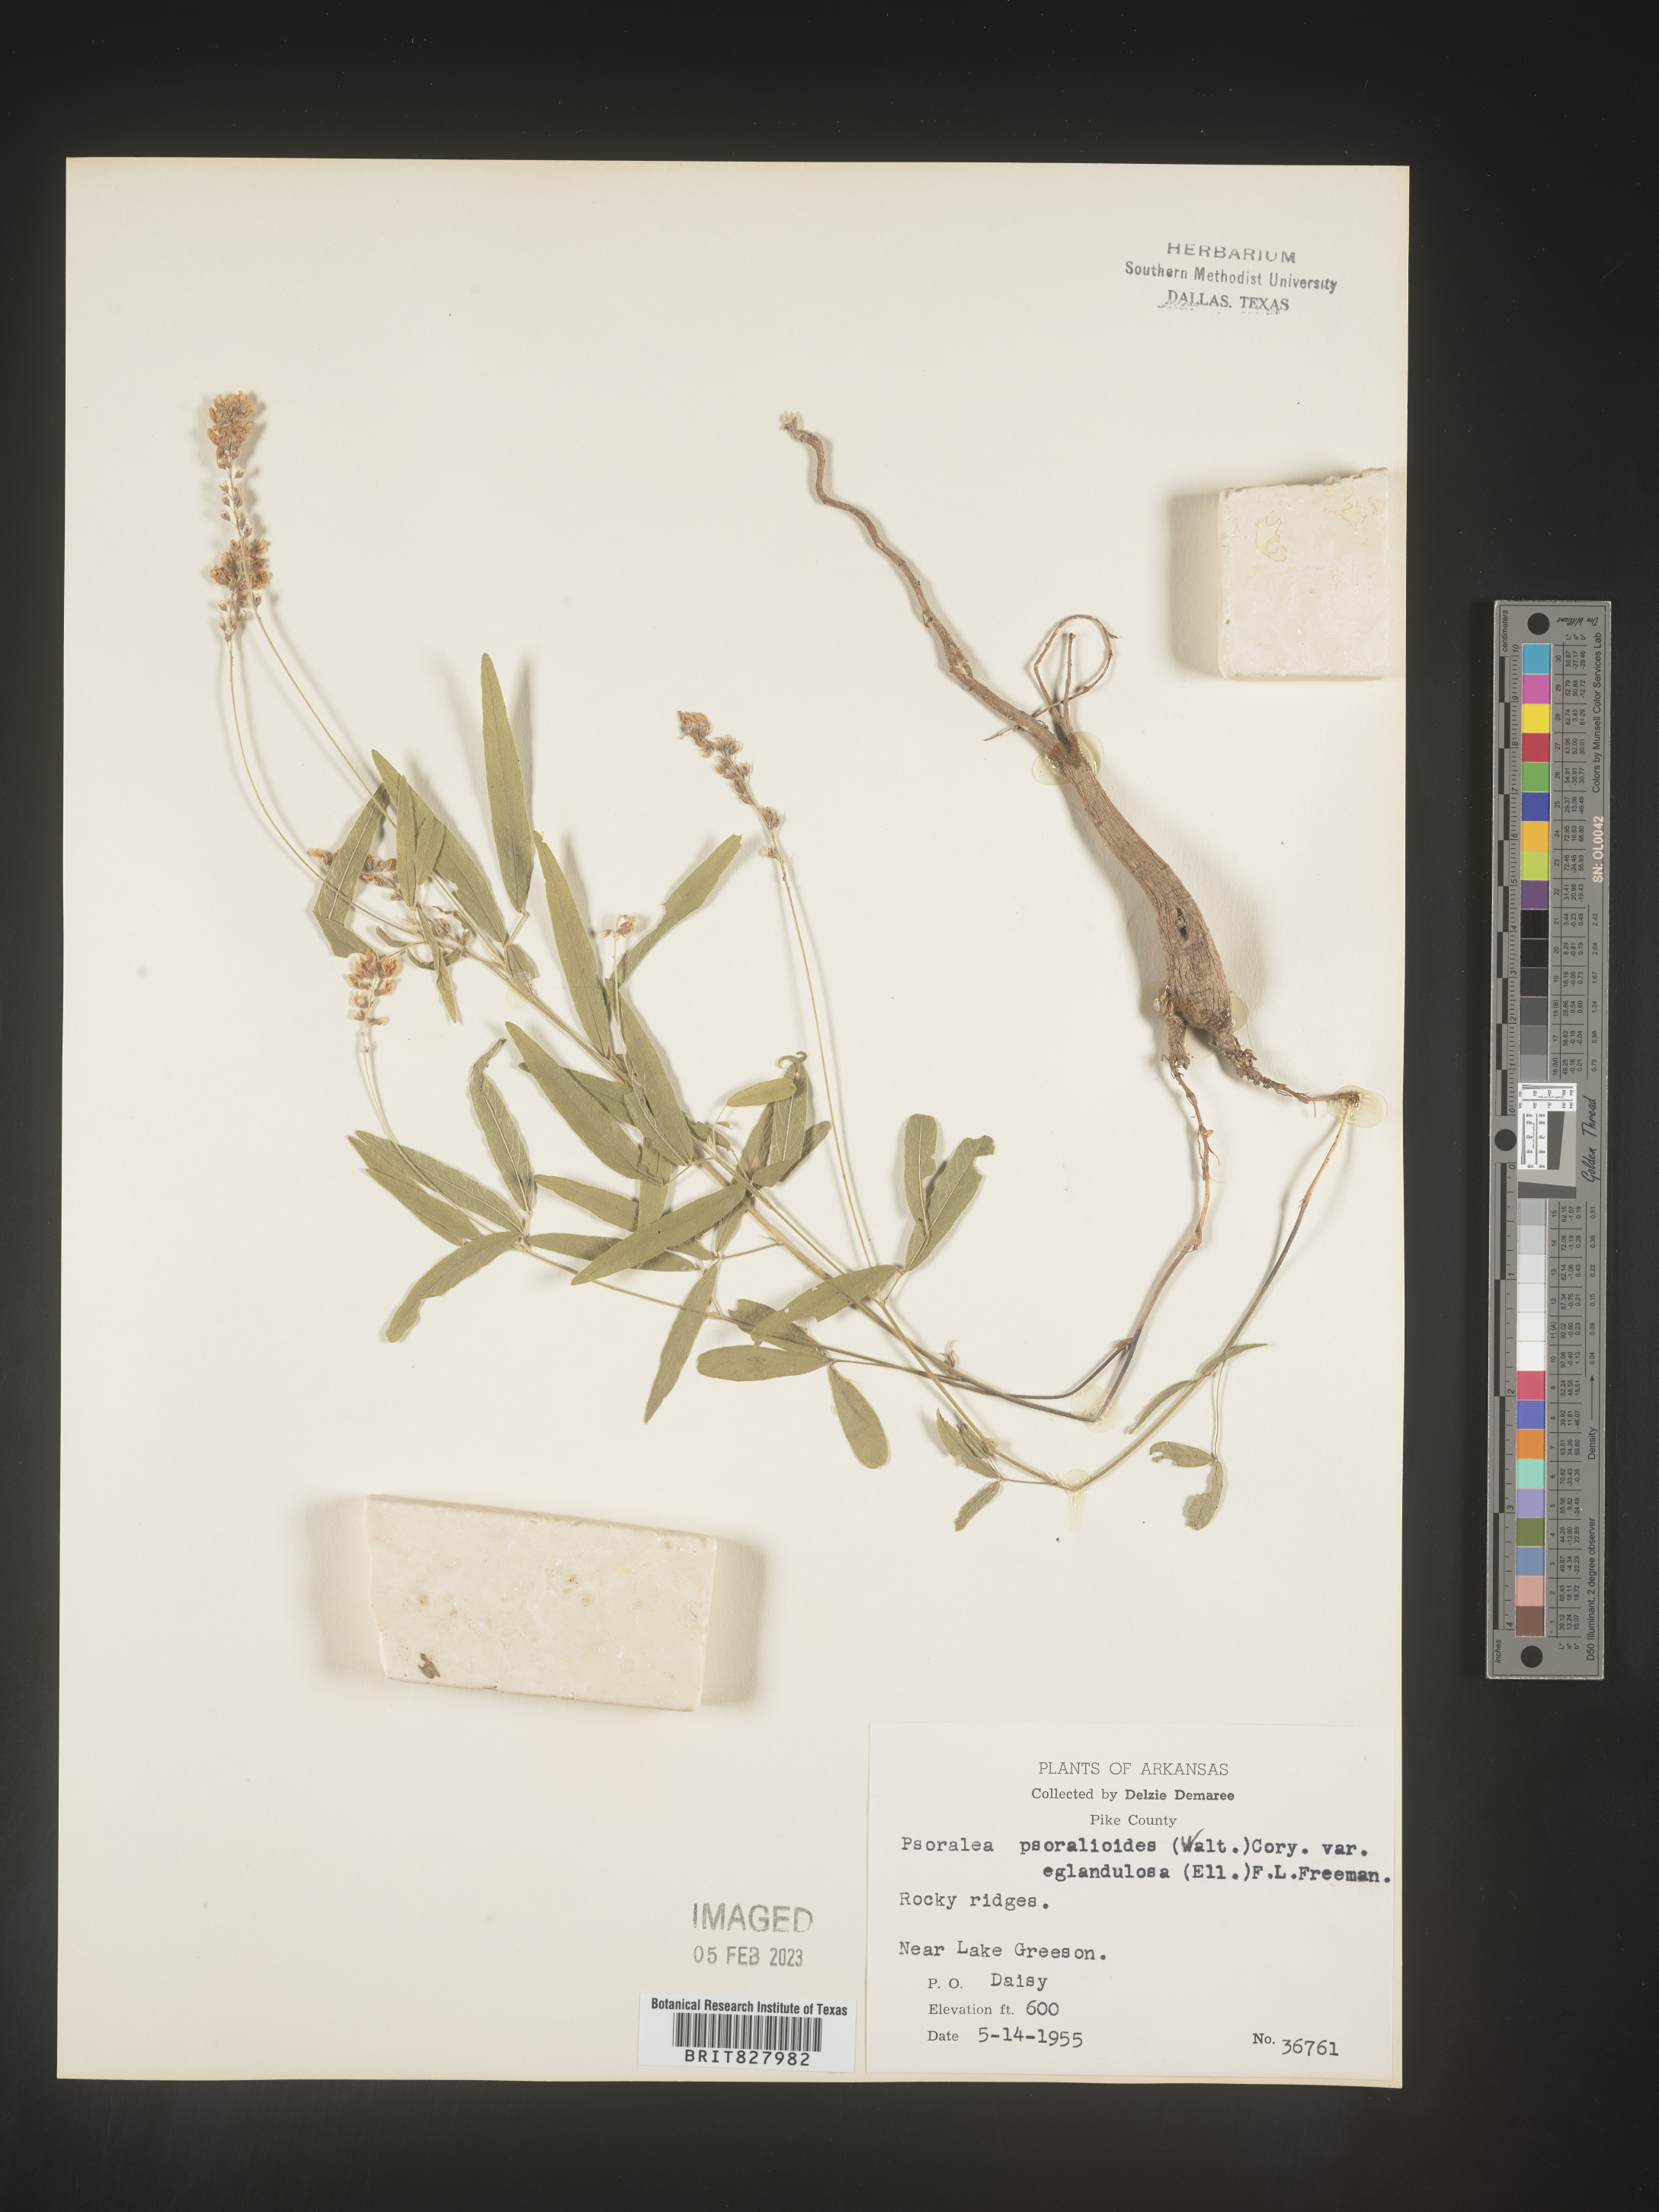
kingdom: Plantae
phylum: Tracheophyta
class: Magnoliopsida
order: Fabales
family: Fabaceae
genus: Orbexilum
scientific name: Orbexilum pedunculatum
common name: Sampson's snakeroot
